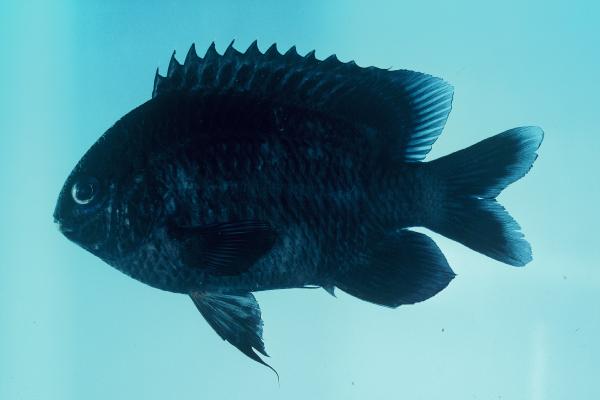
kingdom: Animalia
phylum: Chordata
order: Perciformes
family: Pomacentridae
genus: Chrysiptera
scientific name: Chrysiptera unimaculata
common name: Onespot demoiselle
